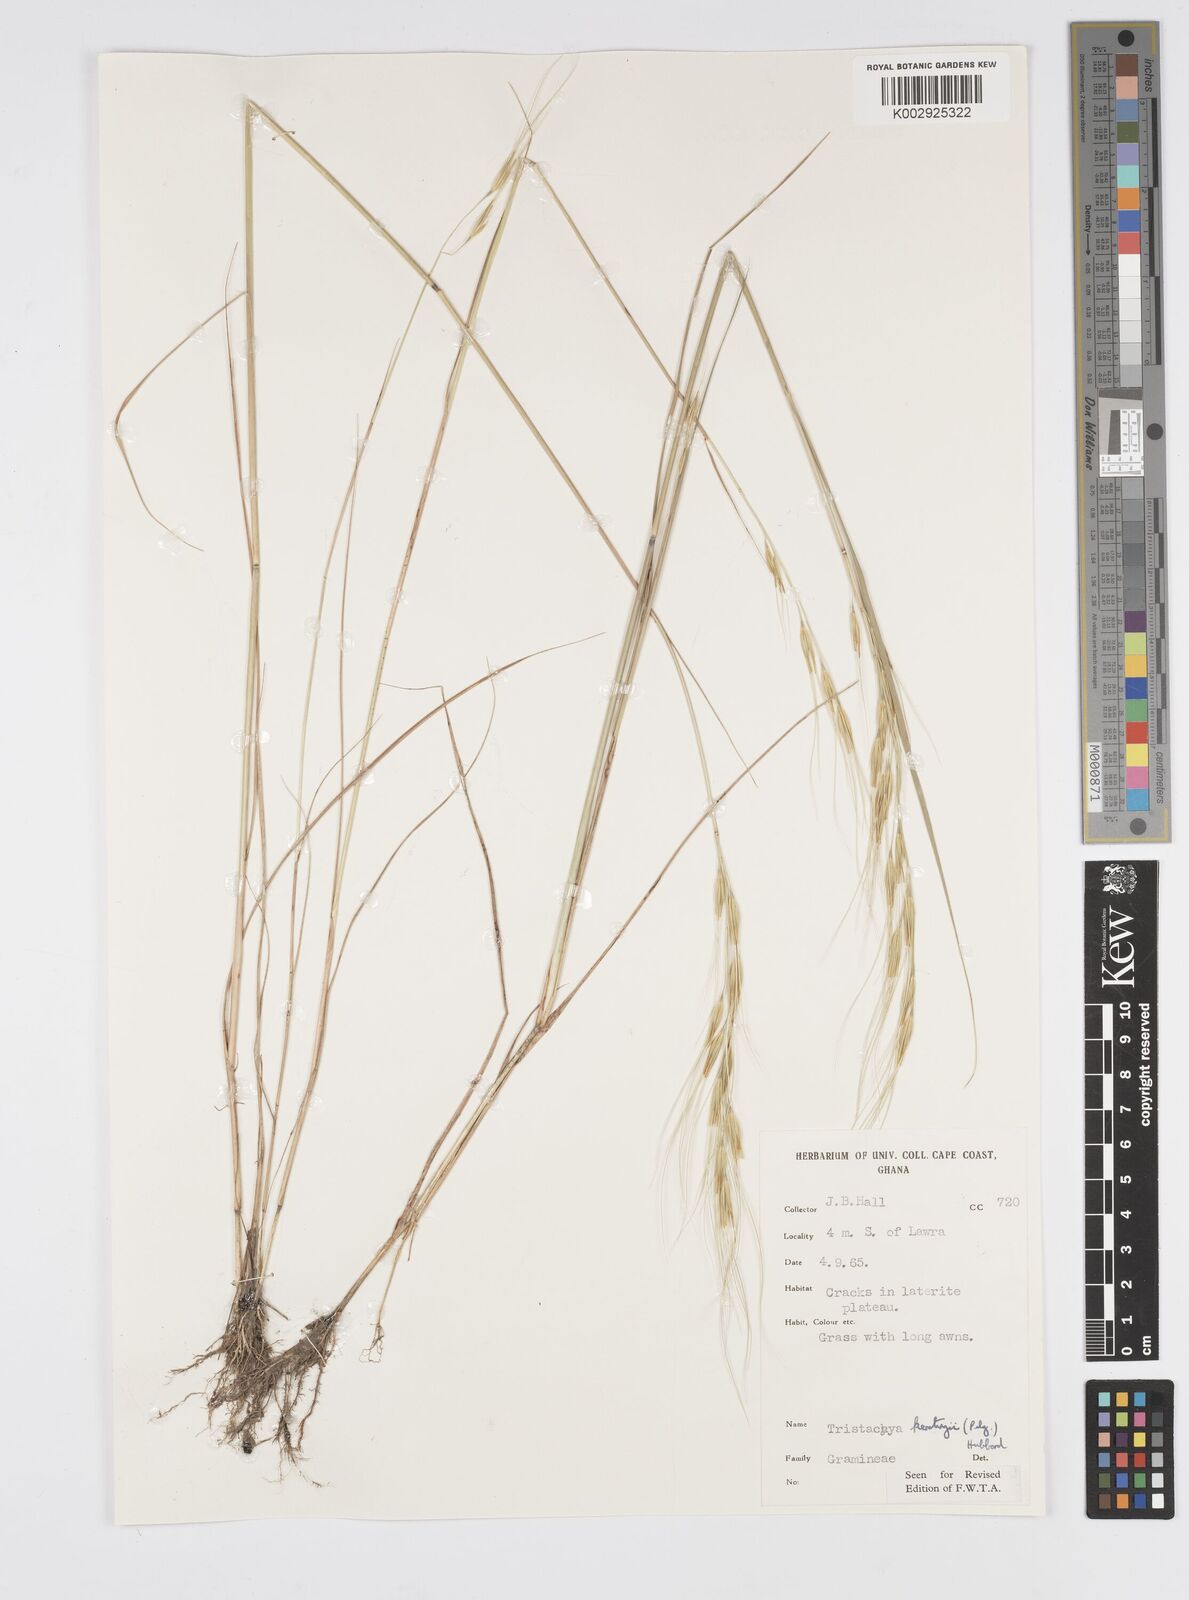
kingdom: Plantae
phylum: Tracheophyta
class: Liliopsida
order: Poales
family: Poaceae
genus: Loudetiopsis
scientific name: Loudetiopsis kerstingii
